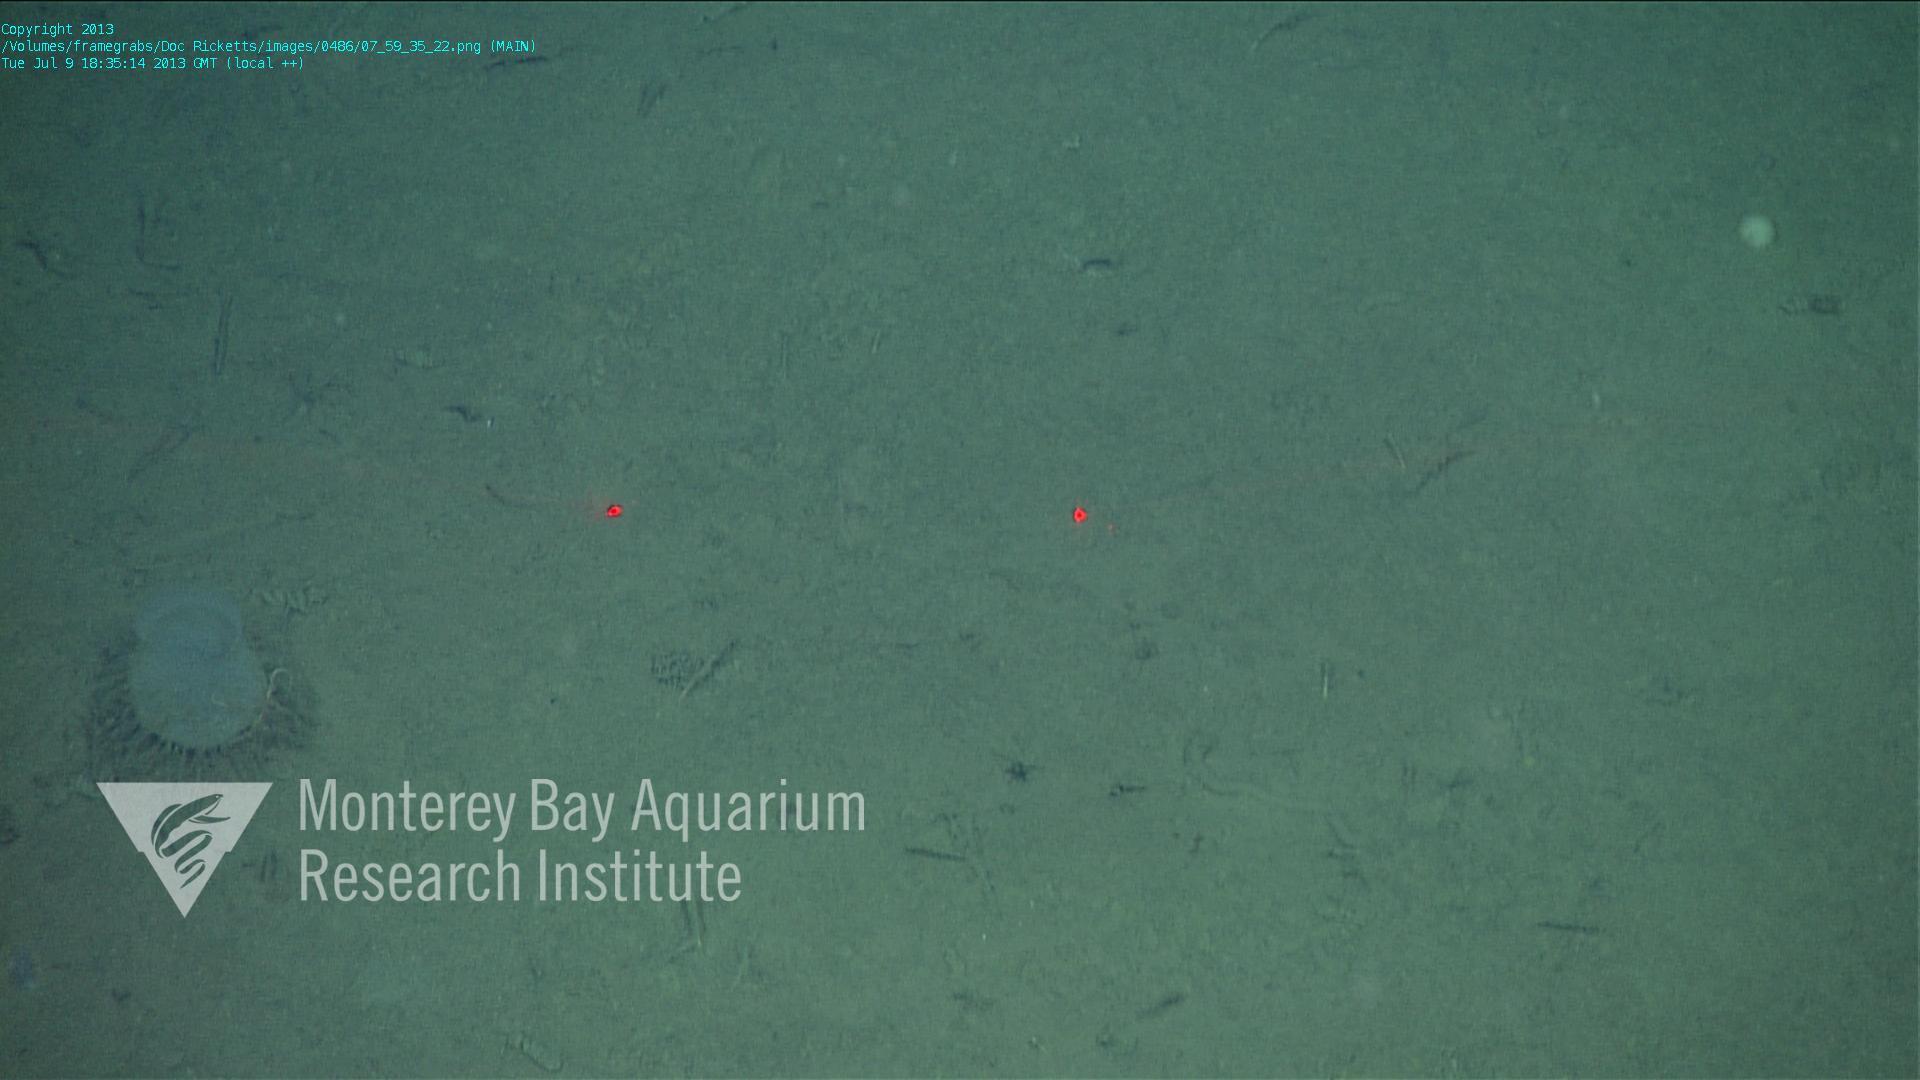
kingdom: Animalia
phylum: Porifera
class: Hexactinellida
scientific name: Hexactinellida
